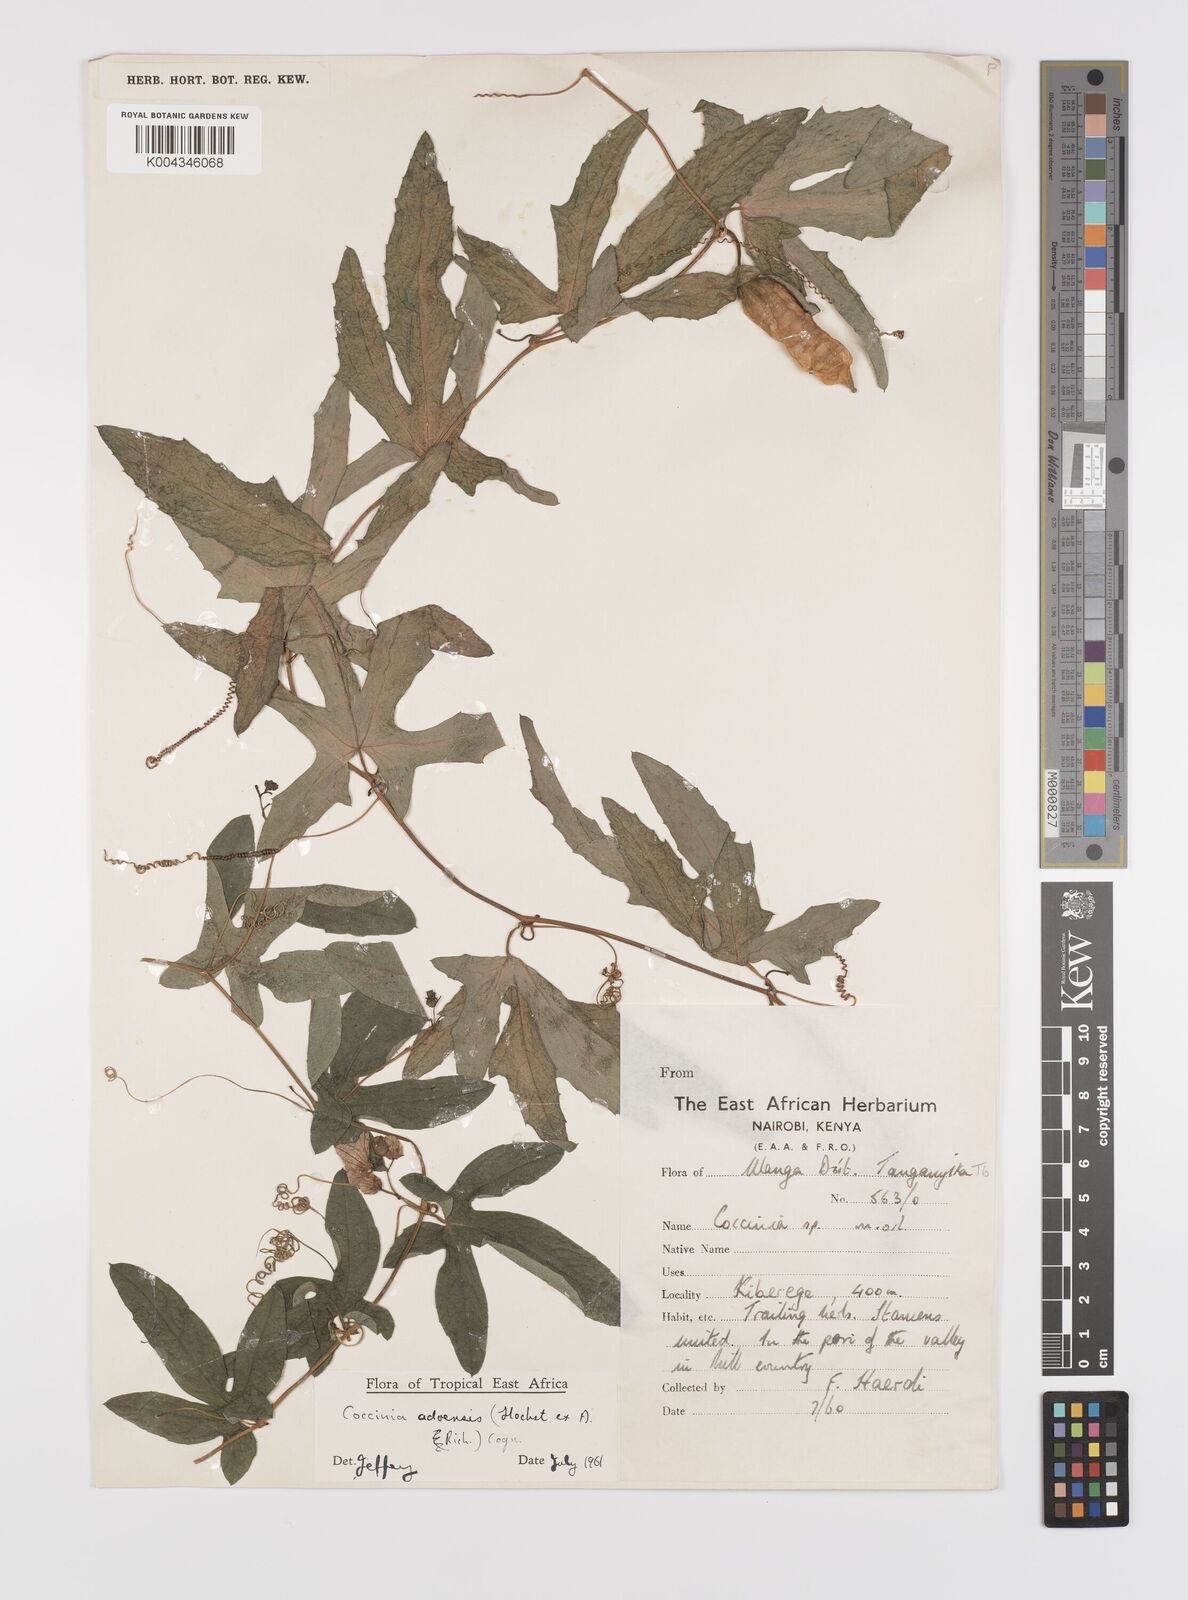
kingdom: Plantae
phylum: Tracheophyta
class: Magnoliopsida
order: Cucurbitales
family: Cucurbitaceae
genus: Coccinia
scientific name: Coccinia adoensis
